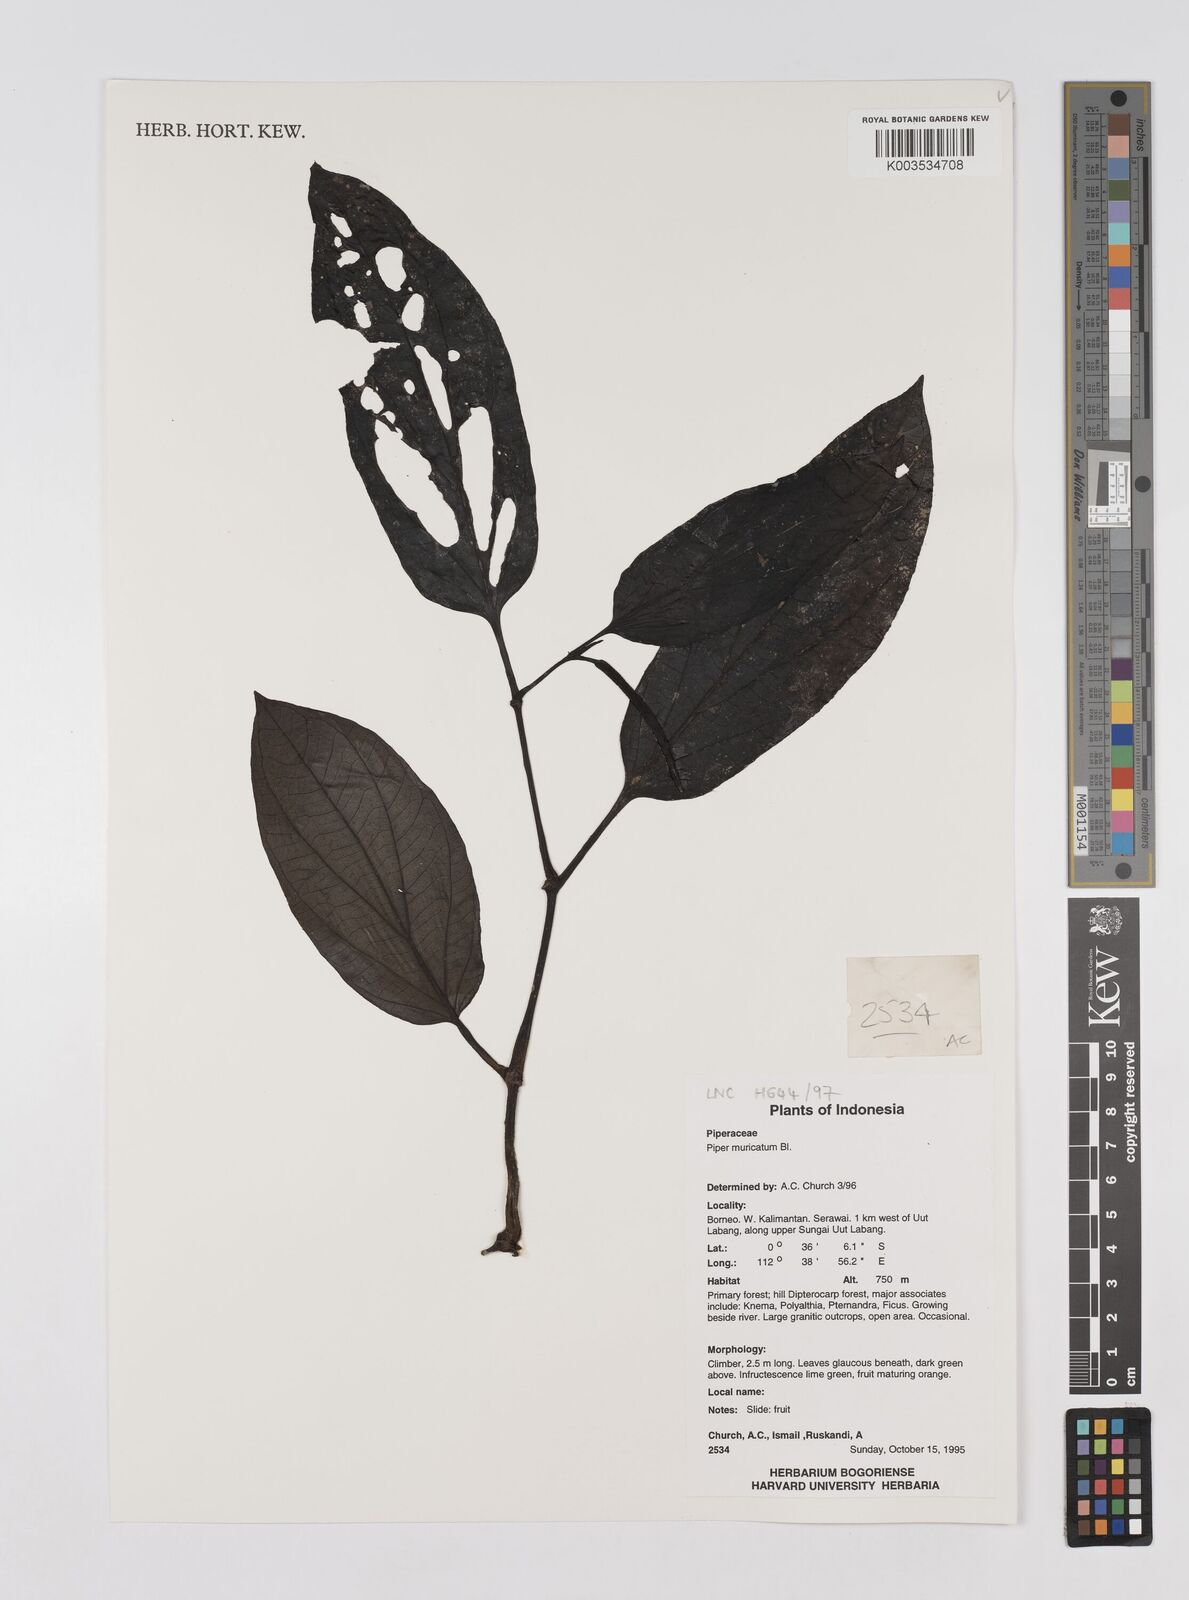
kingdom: Plantae
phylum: Tracheophyta
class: Magnoliopsida
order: Piperales
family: Piperaceae
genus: Piper
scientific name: Piper muricatum
